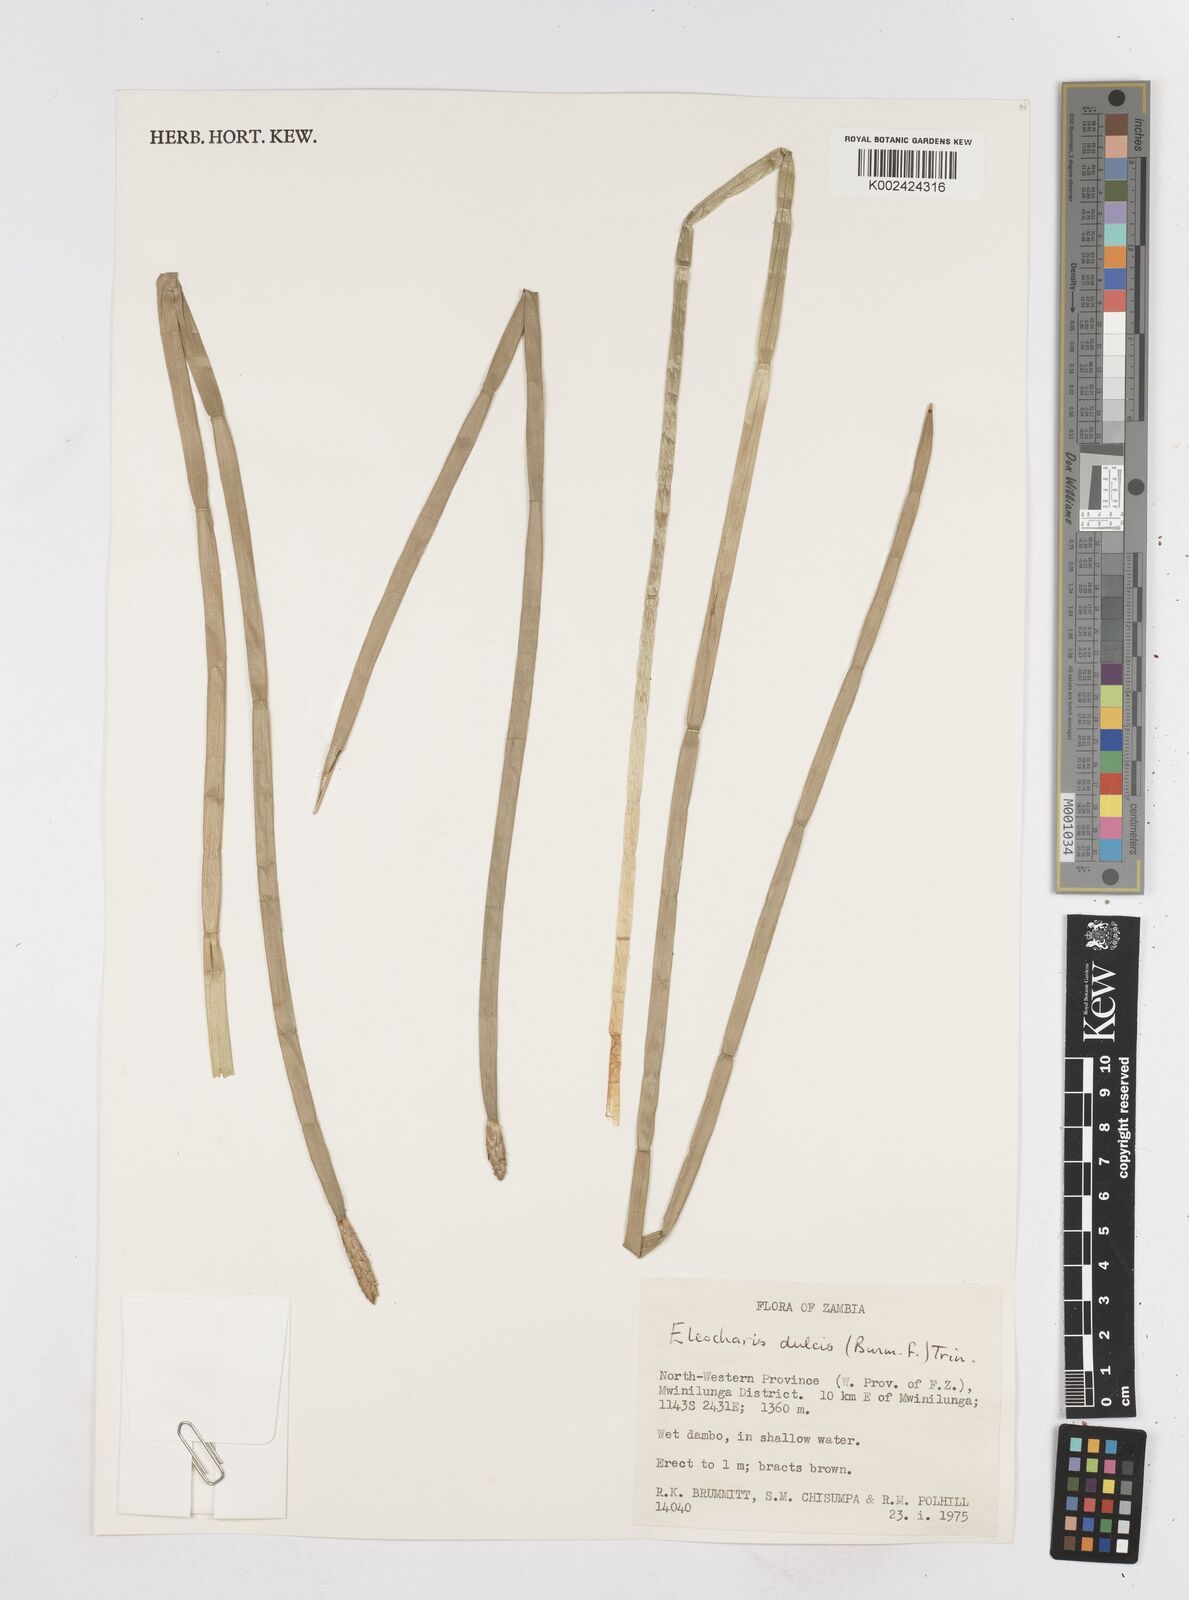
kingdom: Plantae
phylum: Tracheophyta
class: Liliopsida
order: Poales
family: Cyperaceae
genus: Eleocharis
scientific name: Eleocharis dulcis
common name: Chinese water chestnut
